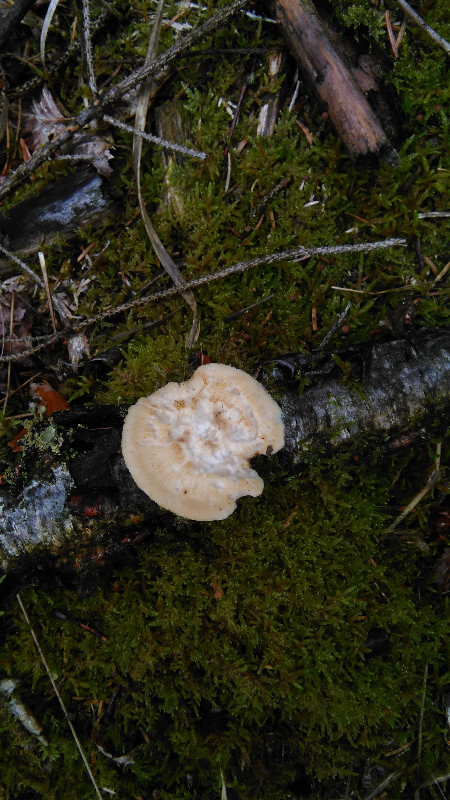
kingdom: Fungi
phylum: Basidiomycota
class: Agaricomycetes
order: Polyporales
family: Polyporaceae
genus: Lentinus
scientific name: Lentinus substrictus
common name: forårs-stilkporesvamp
